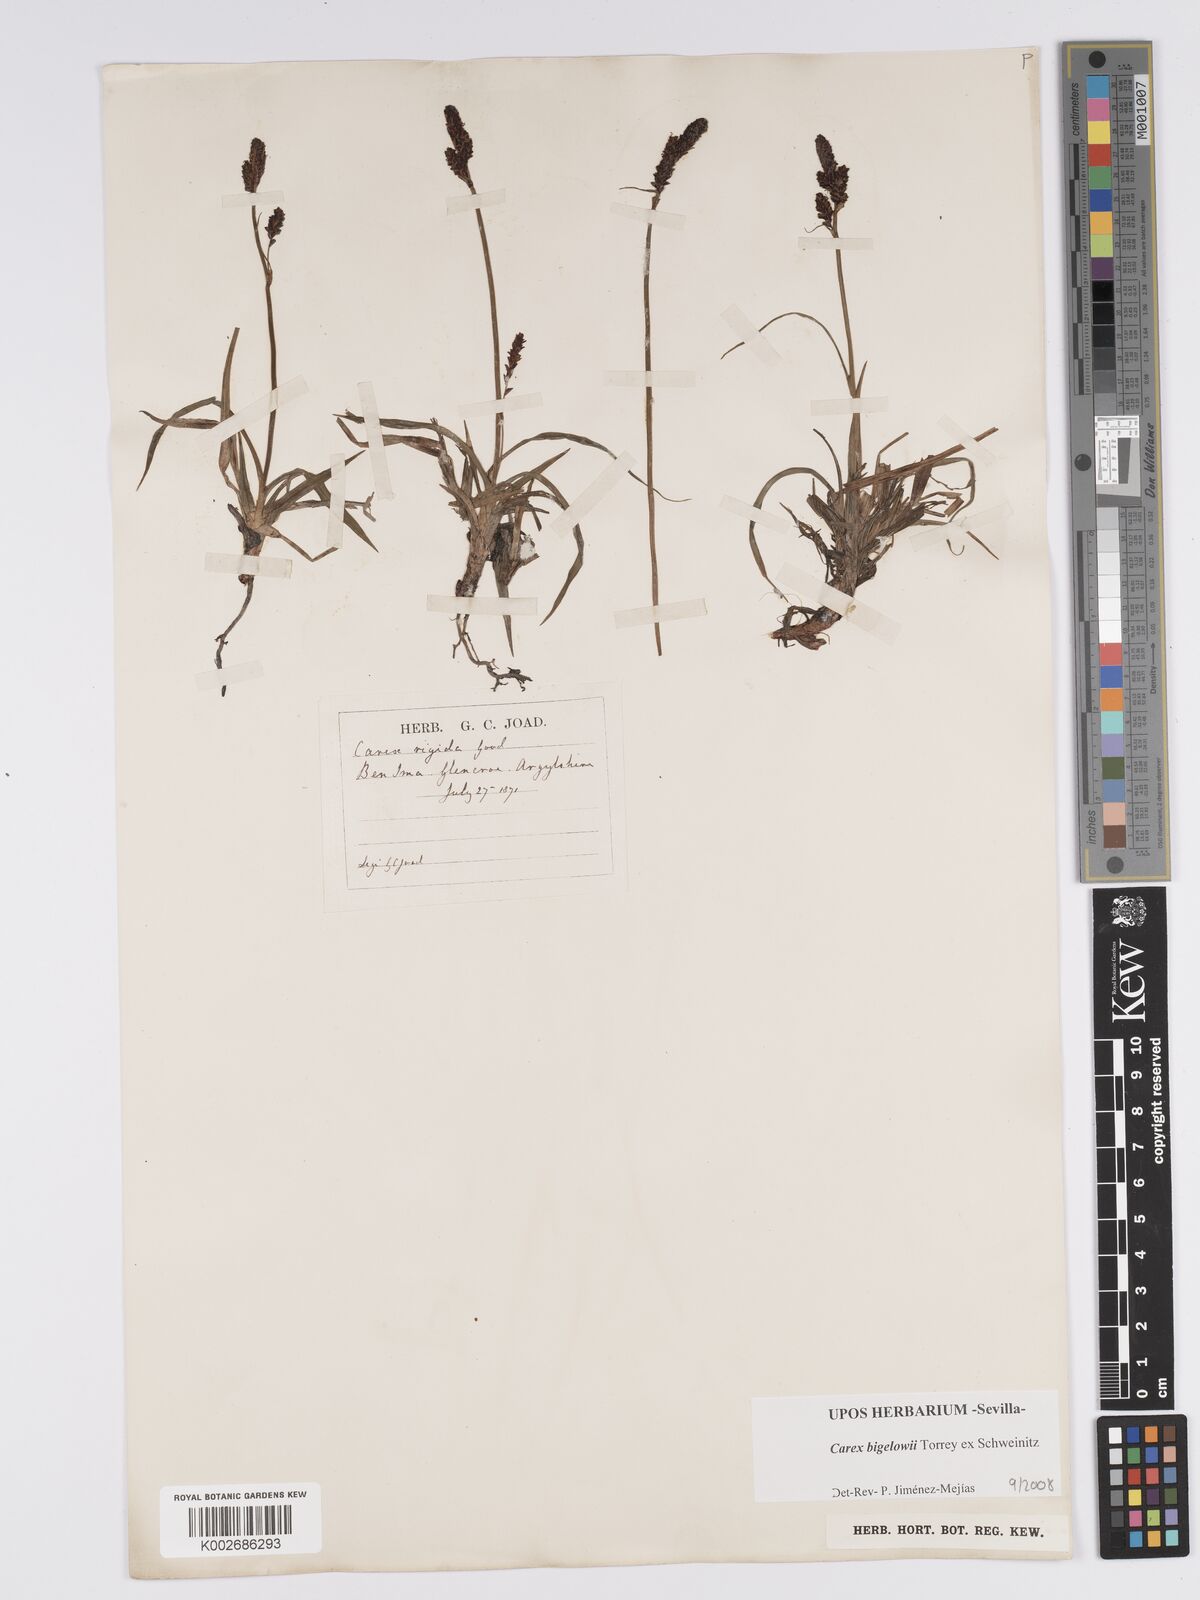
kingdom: Plantae
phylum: Tracheophyta
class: Liliopsida
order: Poales
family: Cyperaceae
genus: Carex
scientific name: Carex bigelowii
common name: Stiff sedge
